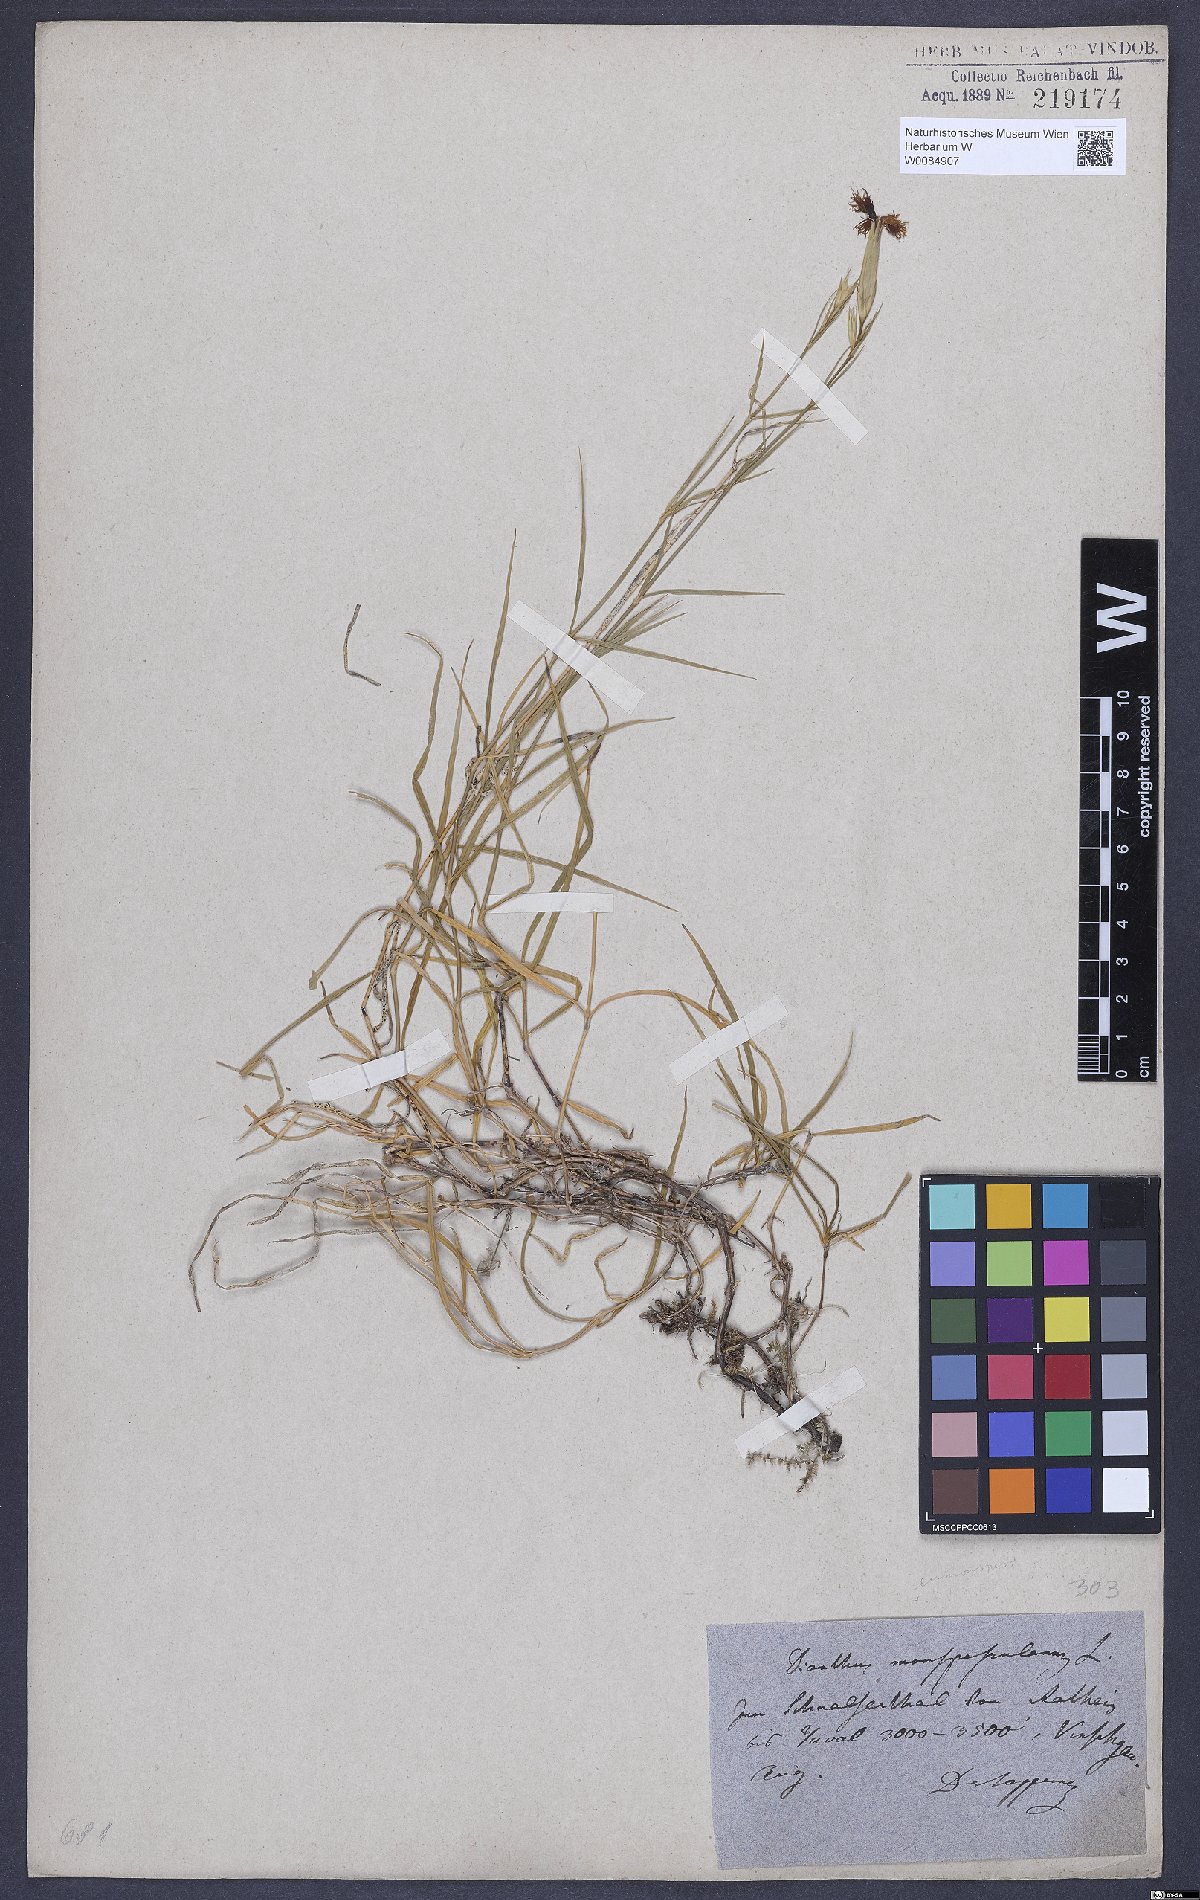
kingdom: Plantae
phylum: Tracheophyta
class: Magnoliopsida
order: Caryophyllales
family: Caryophyllaceae
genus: Dianthus
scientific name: Dianthus hyssopifolius
